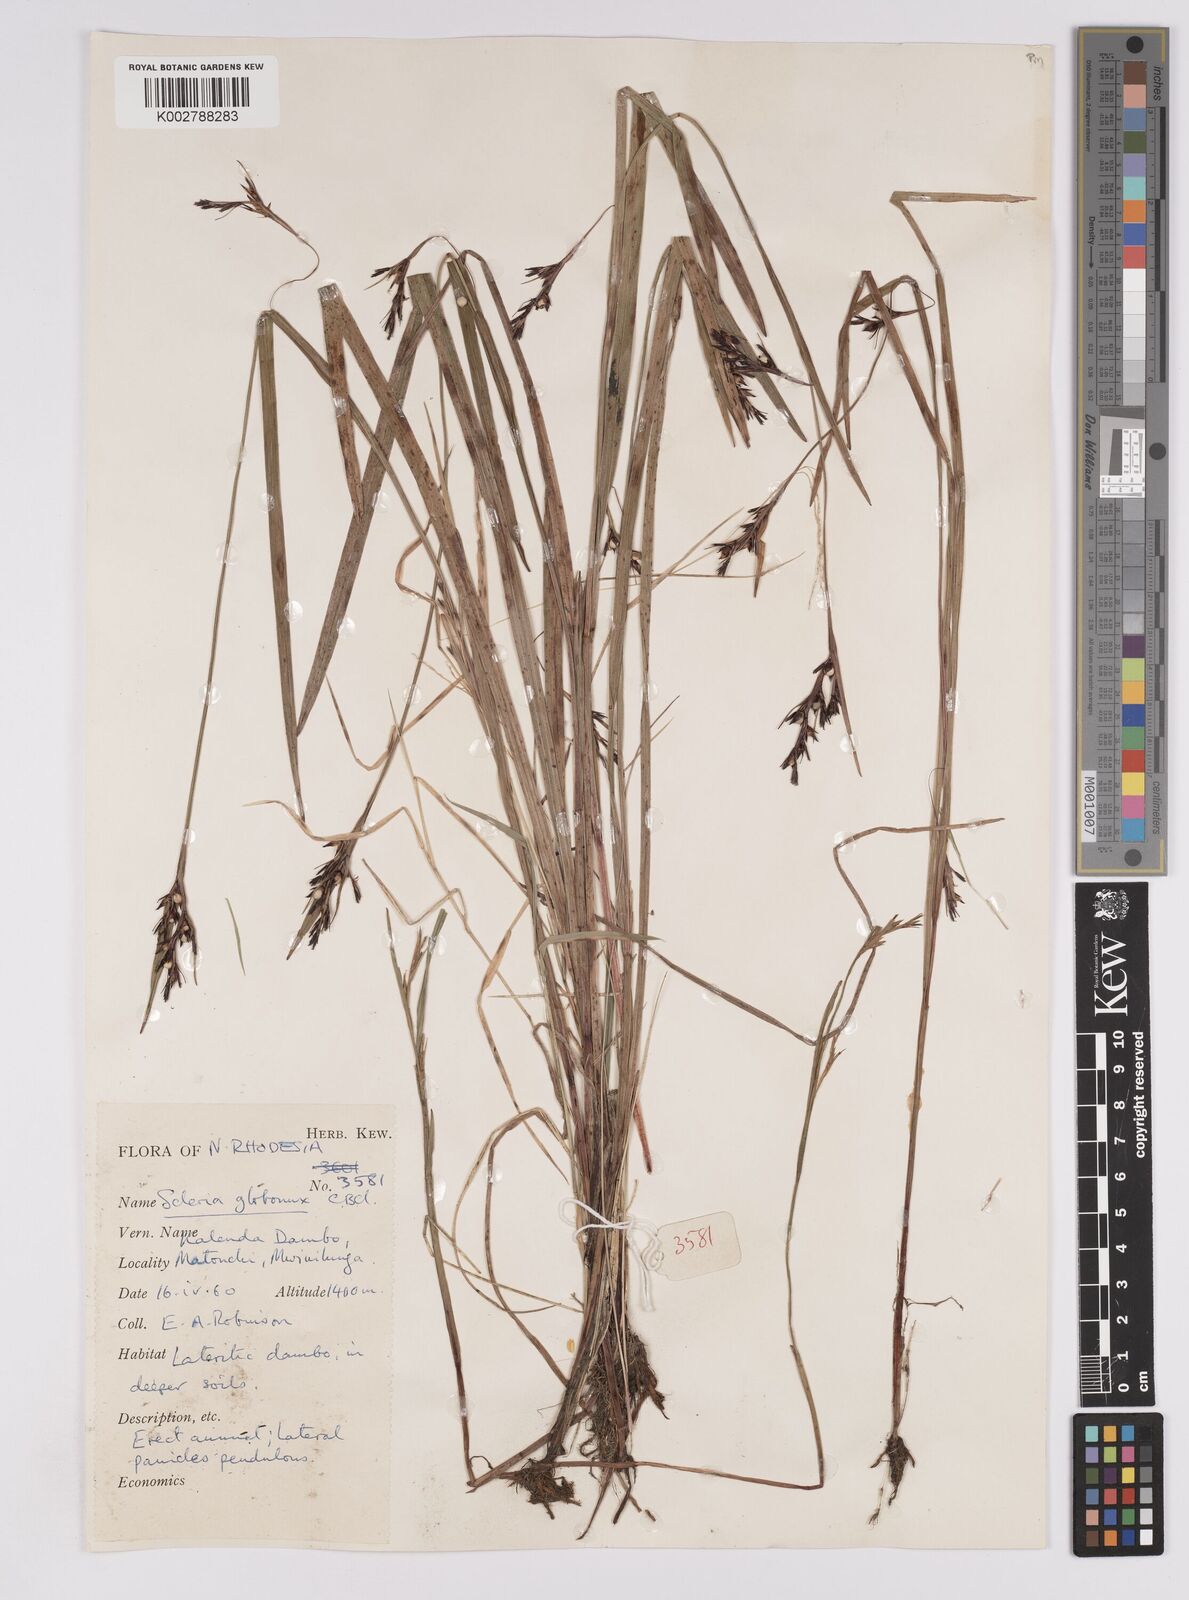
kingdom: Plantae
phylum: Tracheophyta
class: Liliopsida
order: Poales
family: Cyperaceae
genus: Scleria
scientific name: Scleria globonux
